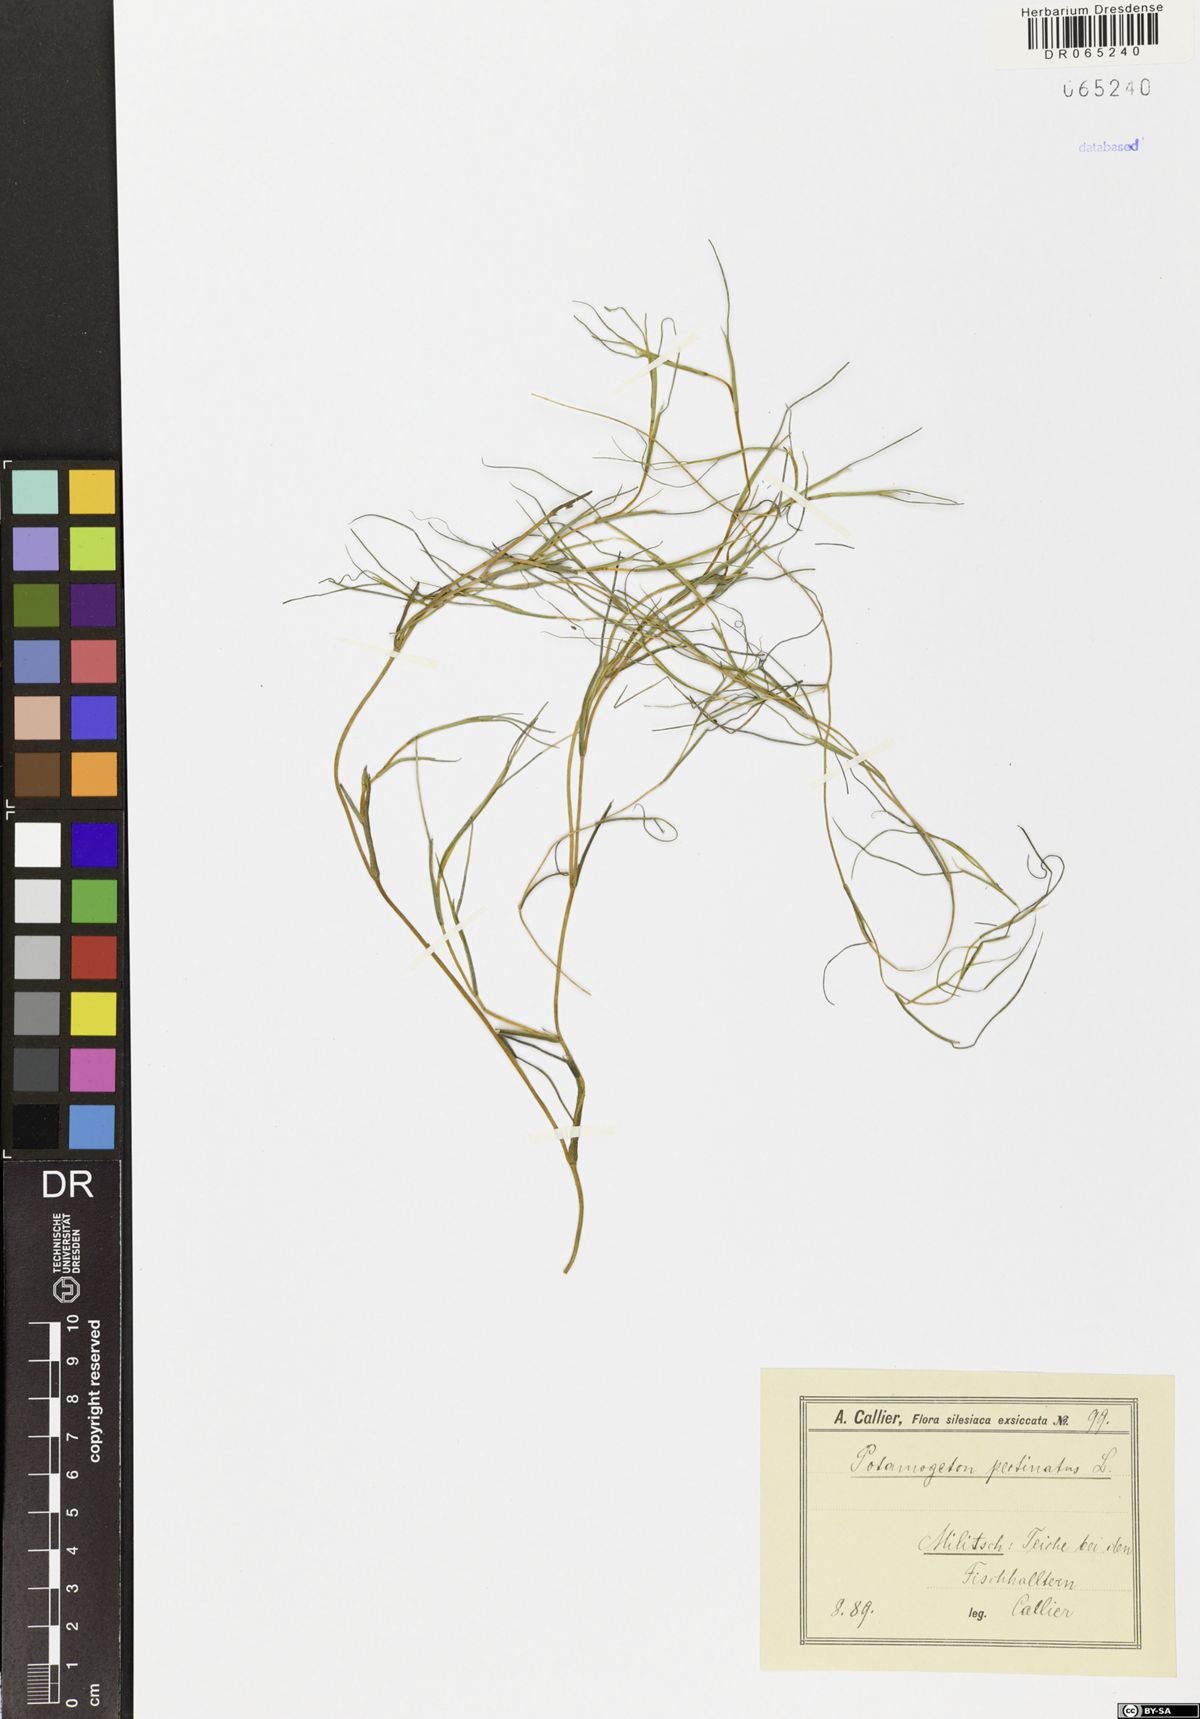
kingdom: Plantae
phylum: Tracheophyta
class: Liliopsida
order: Alismatales
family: Potamogetonaceae
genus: Stuckenia
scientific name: Stuckenia pectinata
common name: Sago pondweed
